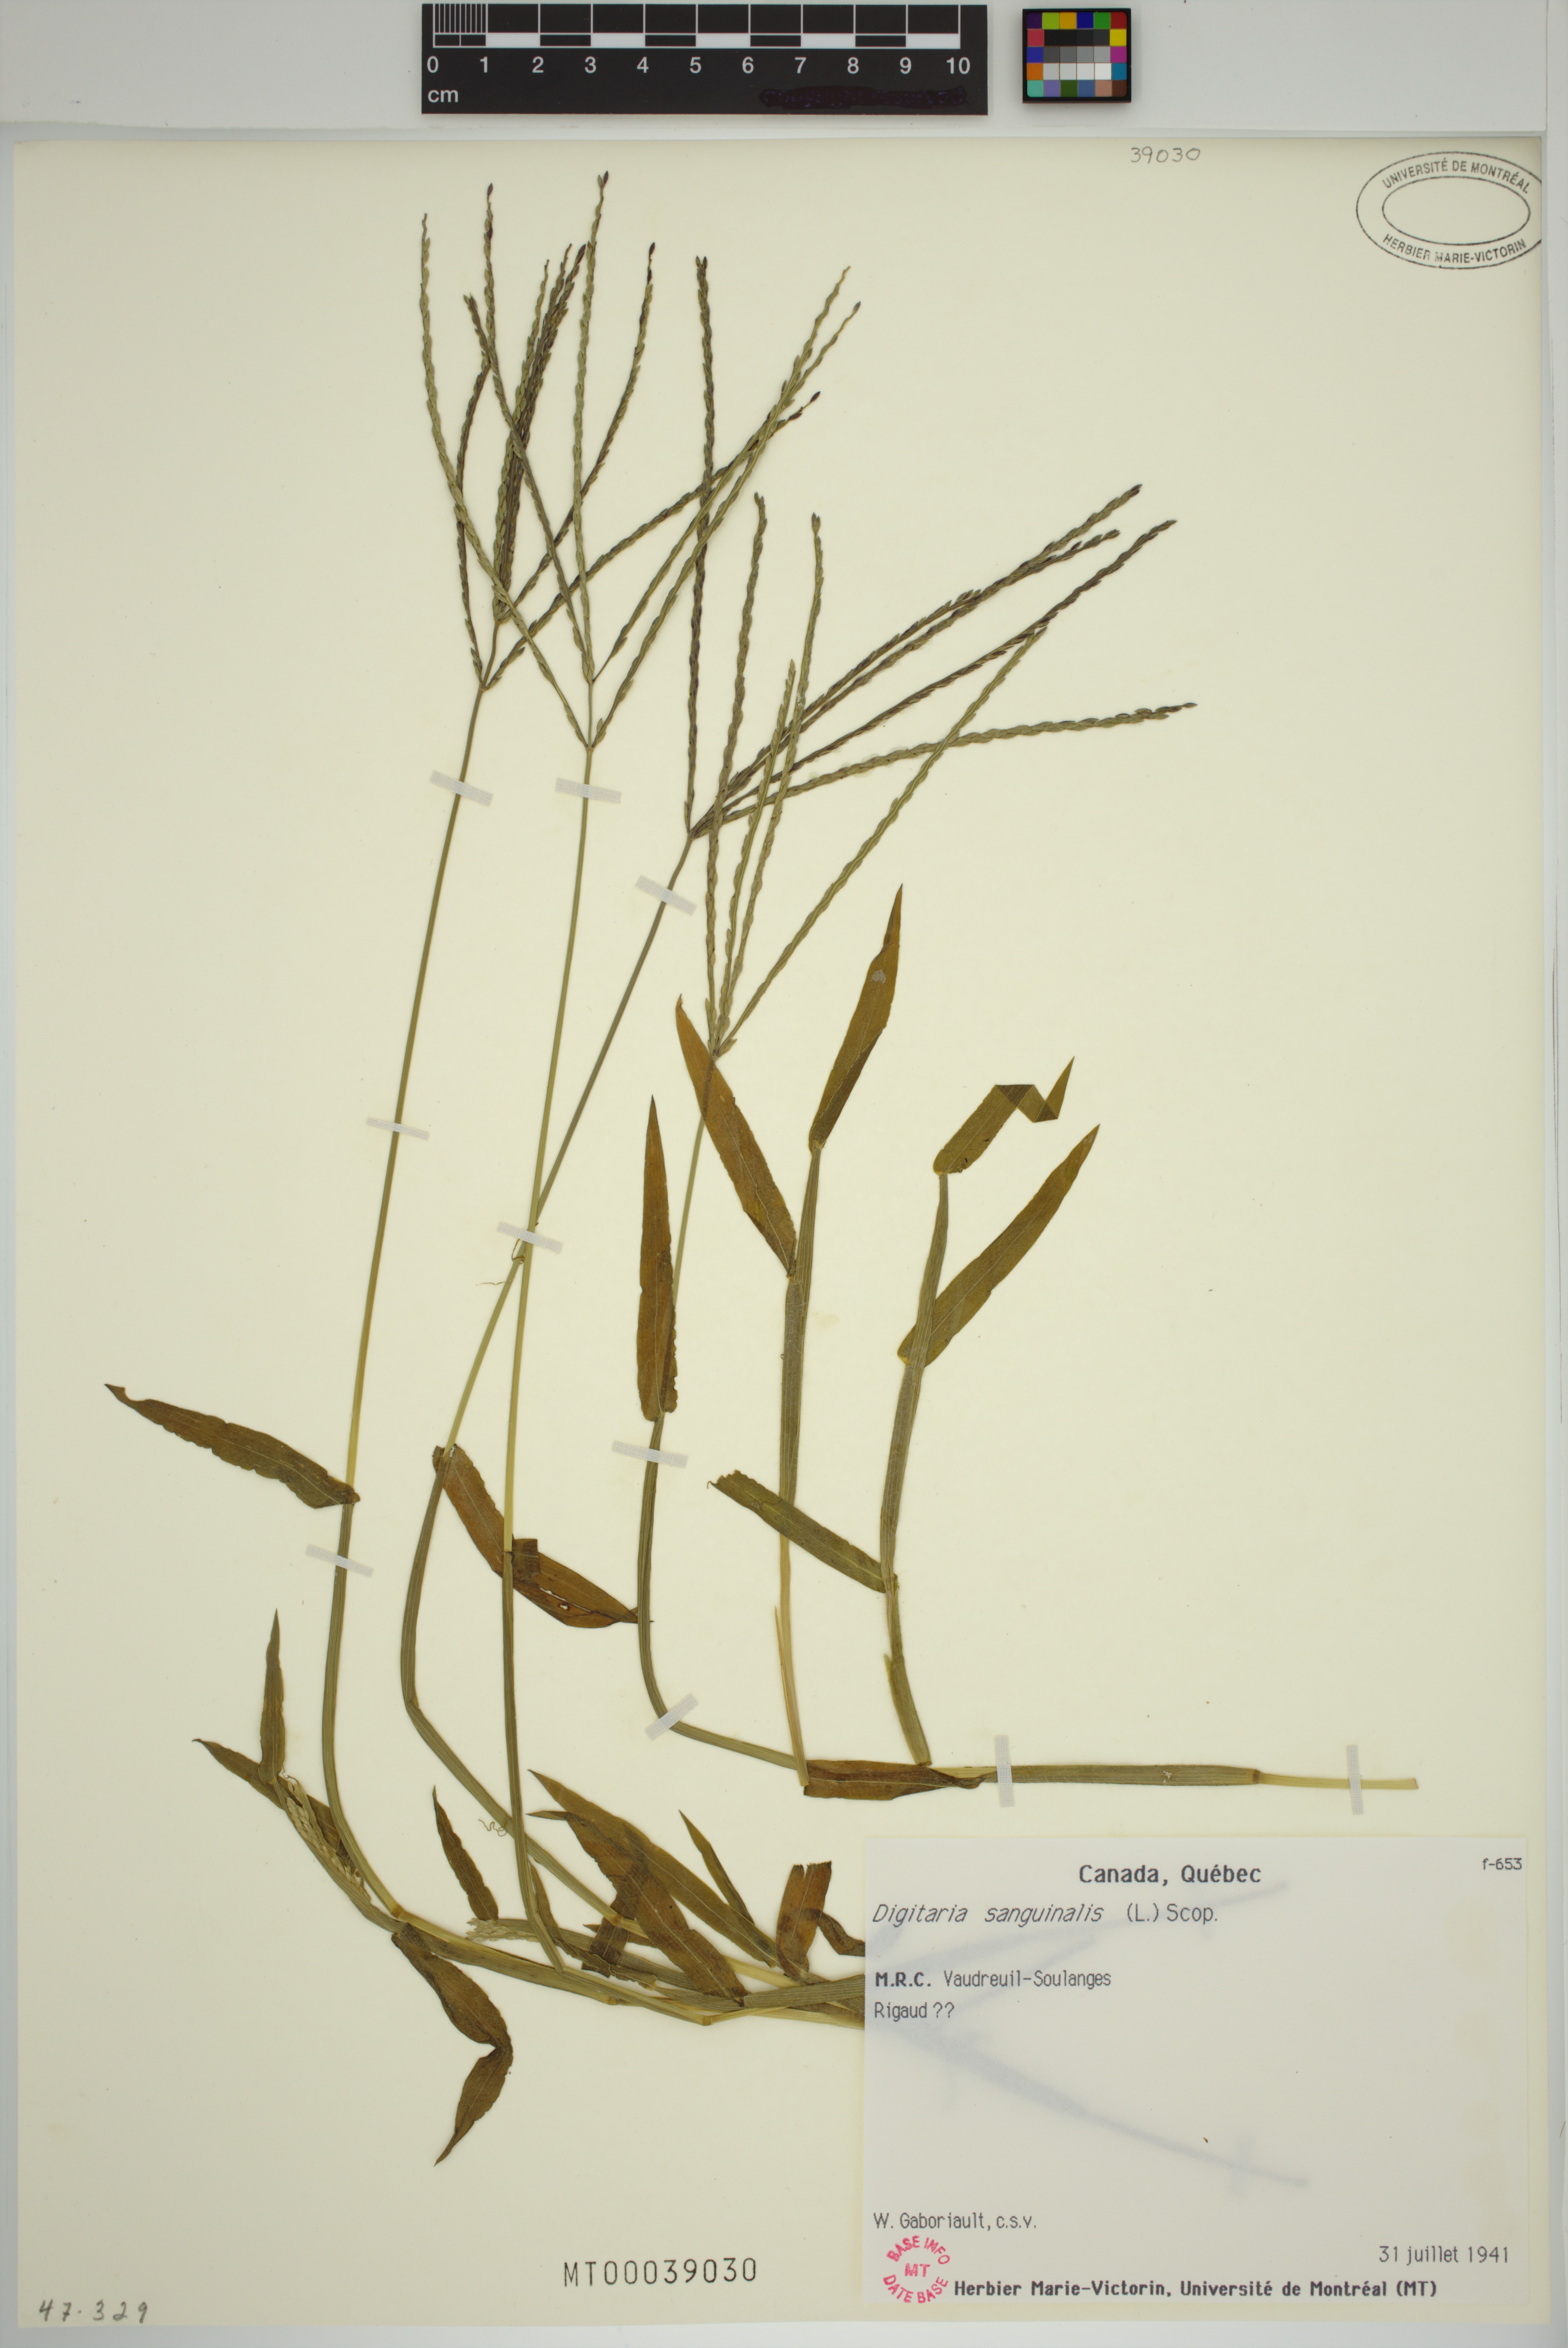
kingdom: Plantae
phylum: Tracheophyta
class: Liliopsida
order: Poales
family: Poaceae
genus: Digitaria
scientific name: Digitaria sanguinalis
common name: Hairy crabgrass
